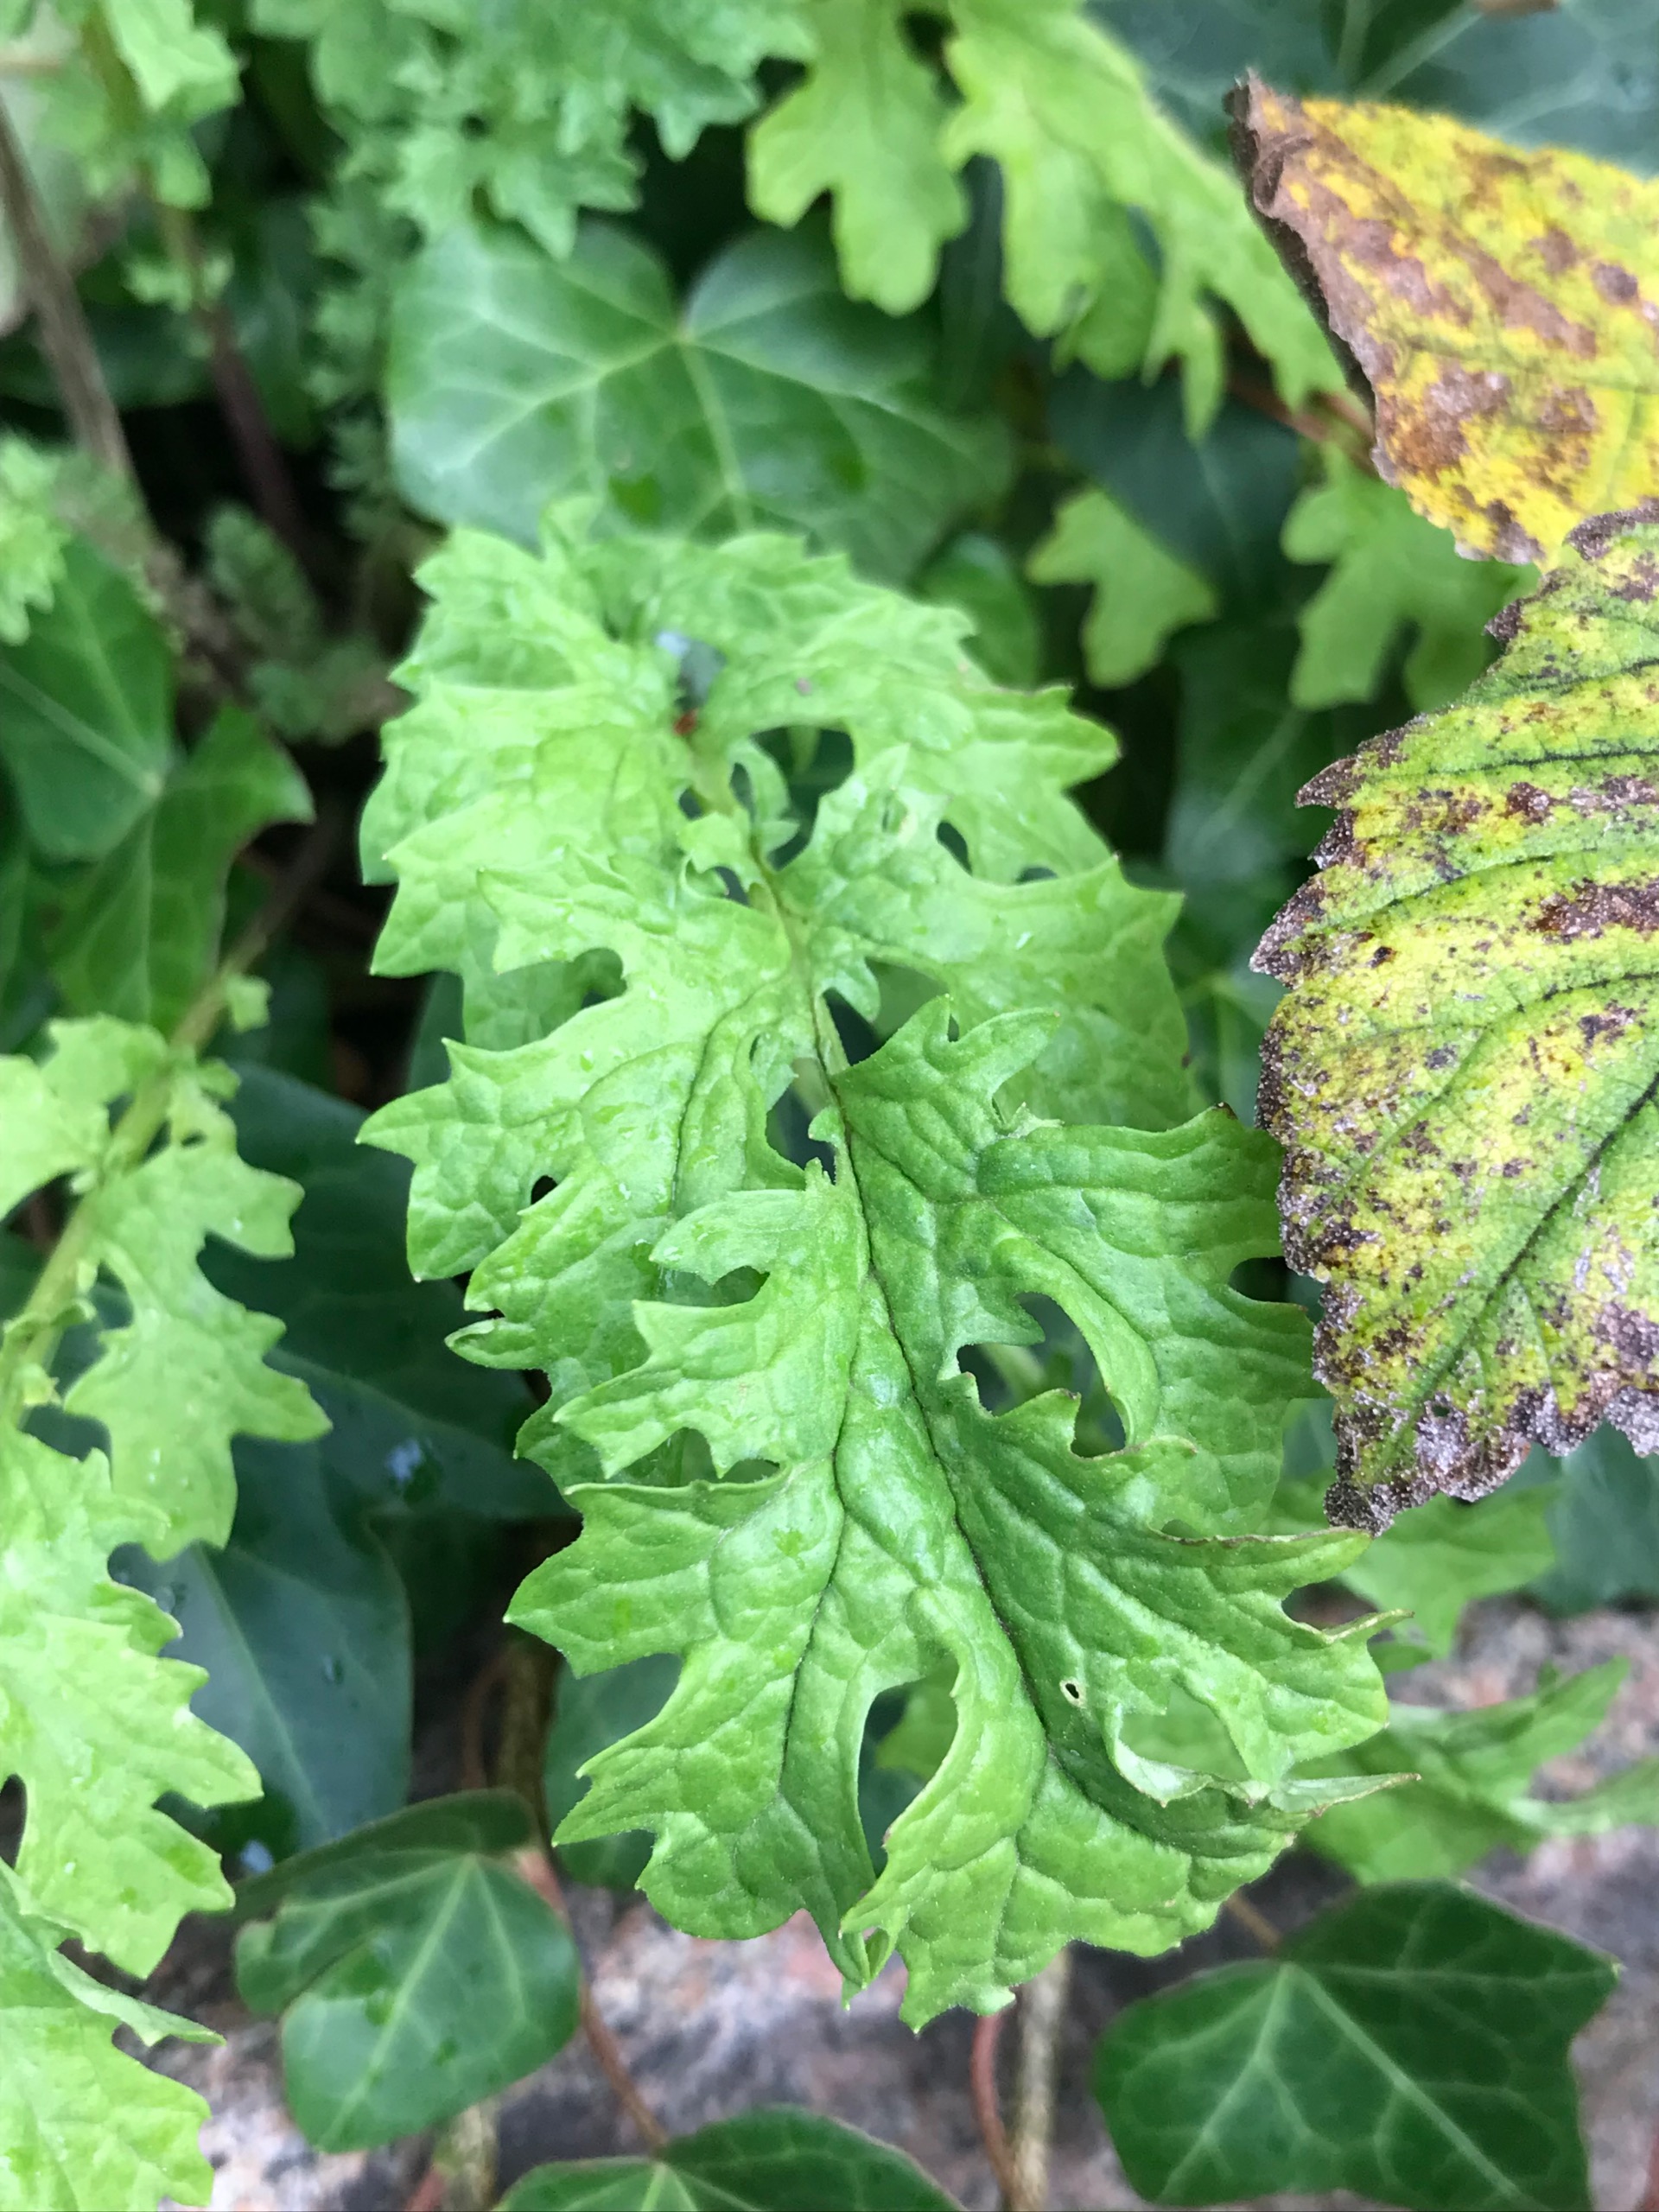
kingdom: Plantae
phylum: Tracheophyta
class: Magnoliopsida
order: Asterales
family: Asteraceae
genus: Jacobaea
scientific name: Jacobaea vulgaris
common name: Eng-brandbæger
